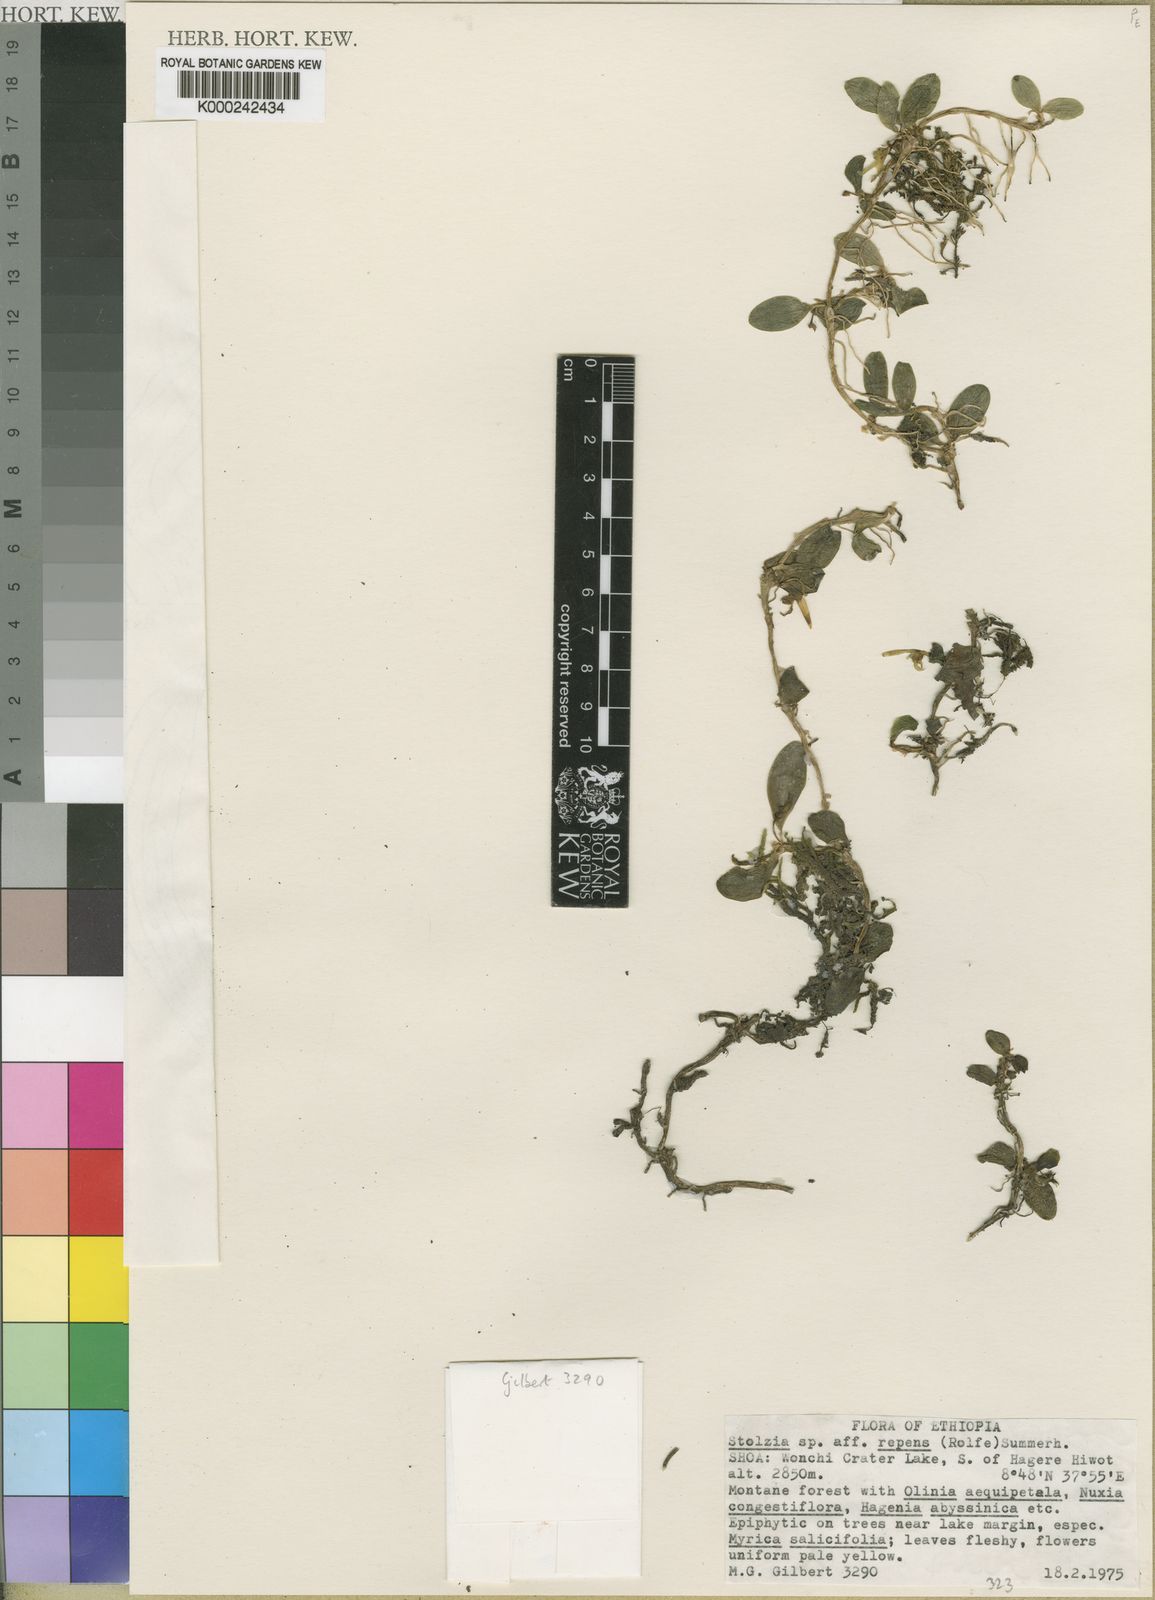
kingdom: Plantae
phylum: Tracheophyta
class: Liliopsida
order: Asparagales
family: Orchidaceae
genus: Porpax
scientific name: Porpax macrantha
